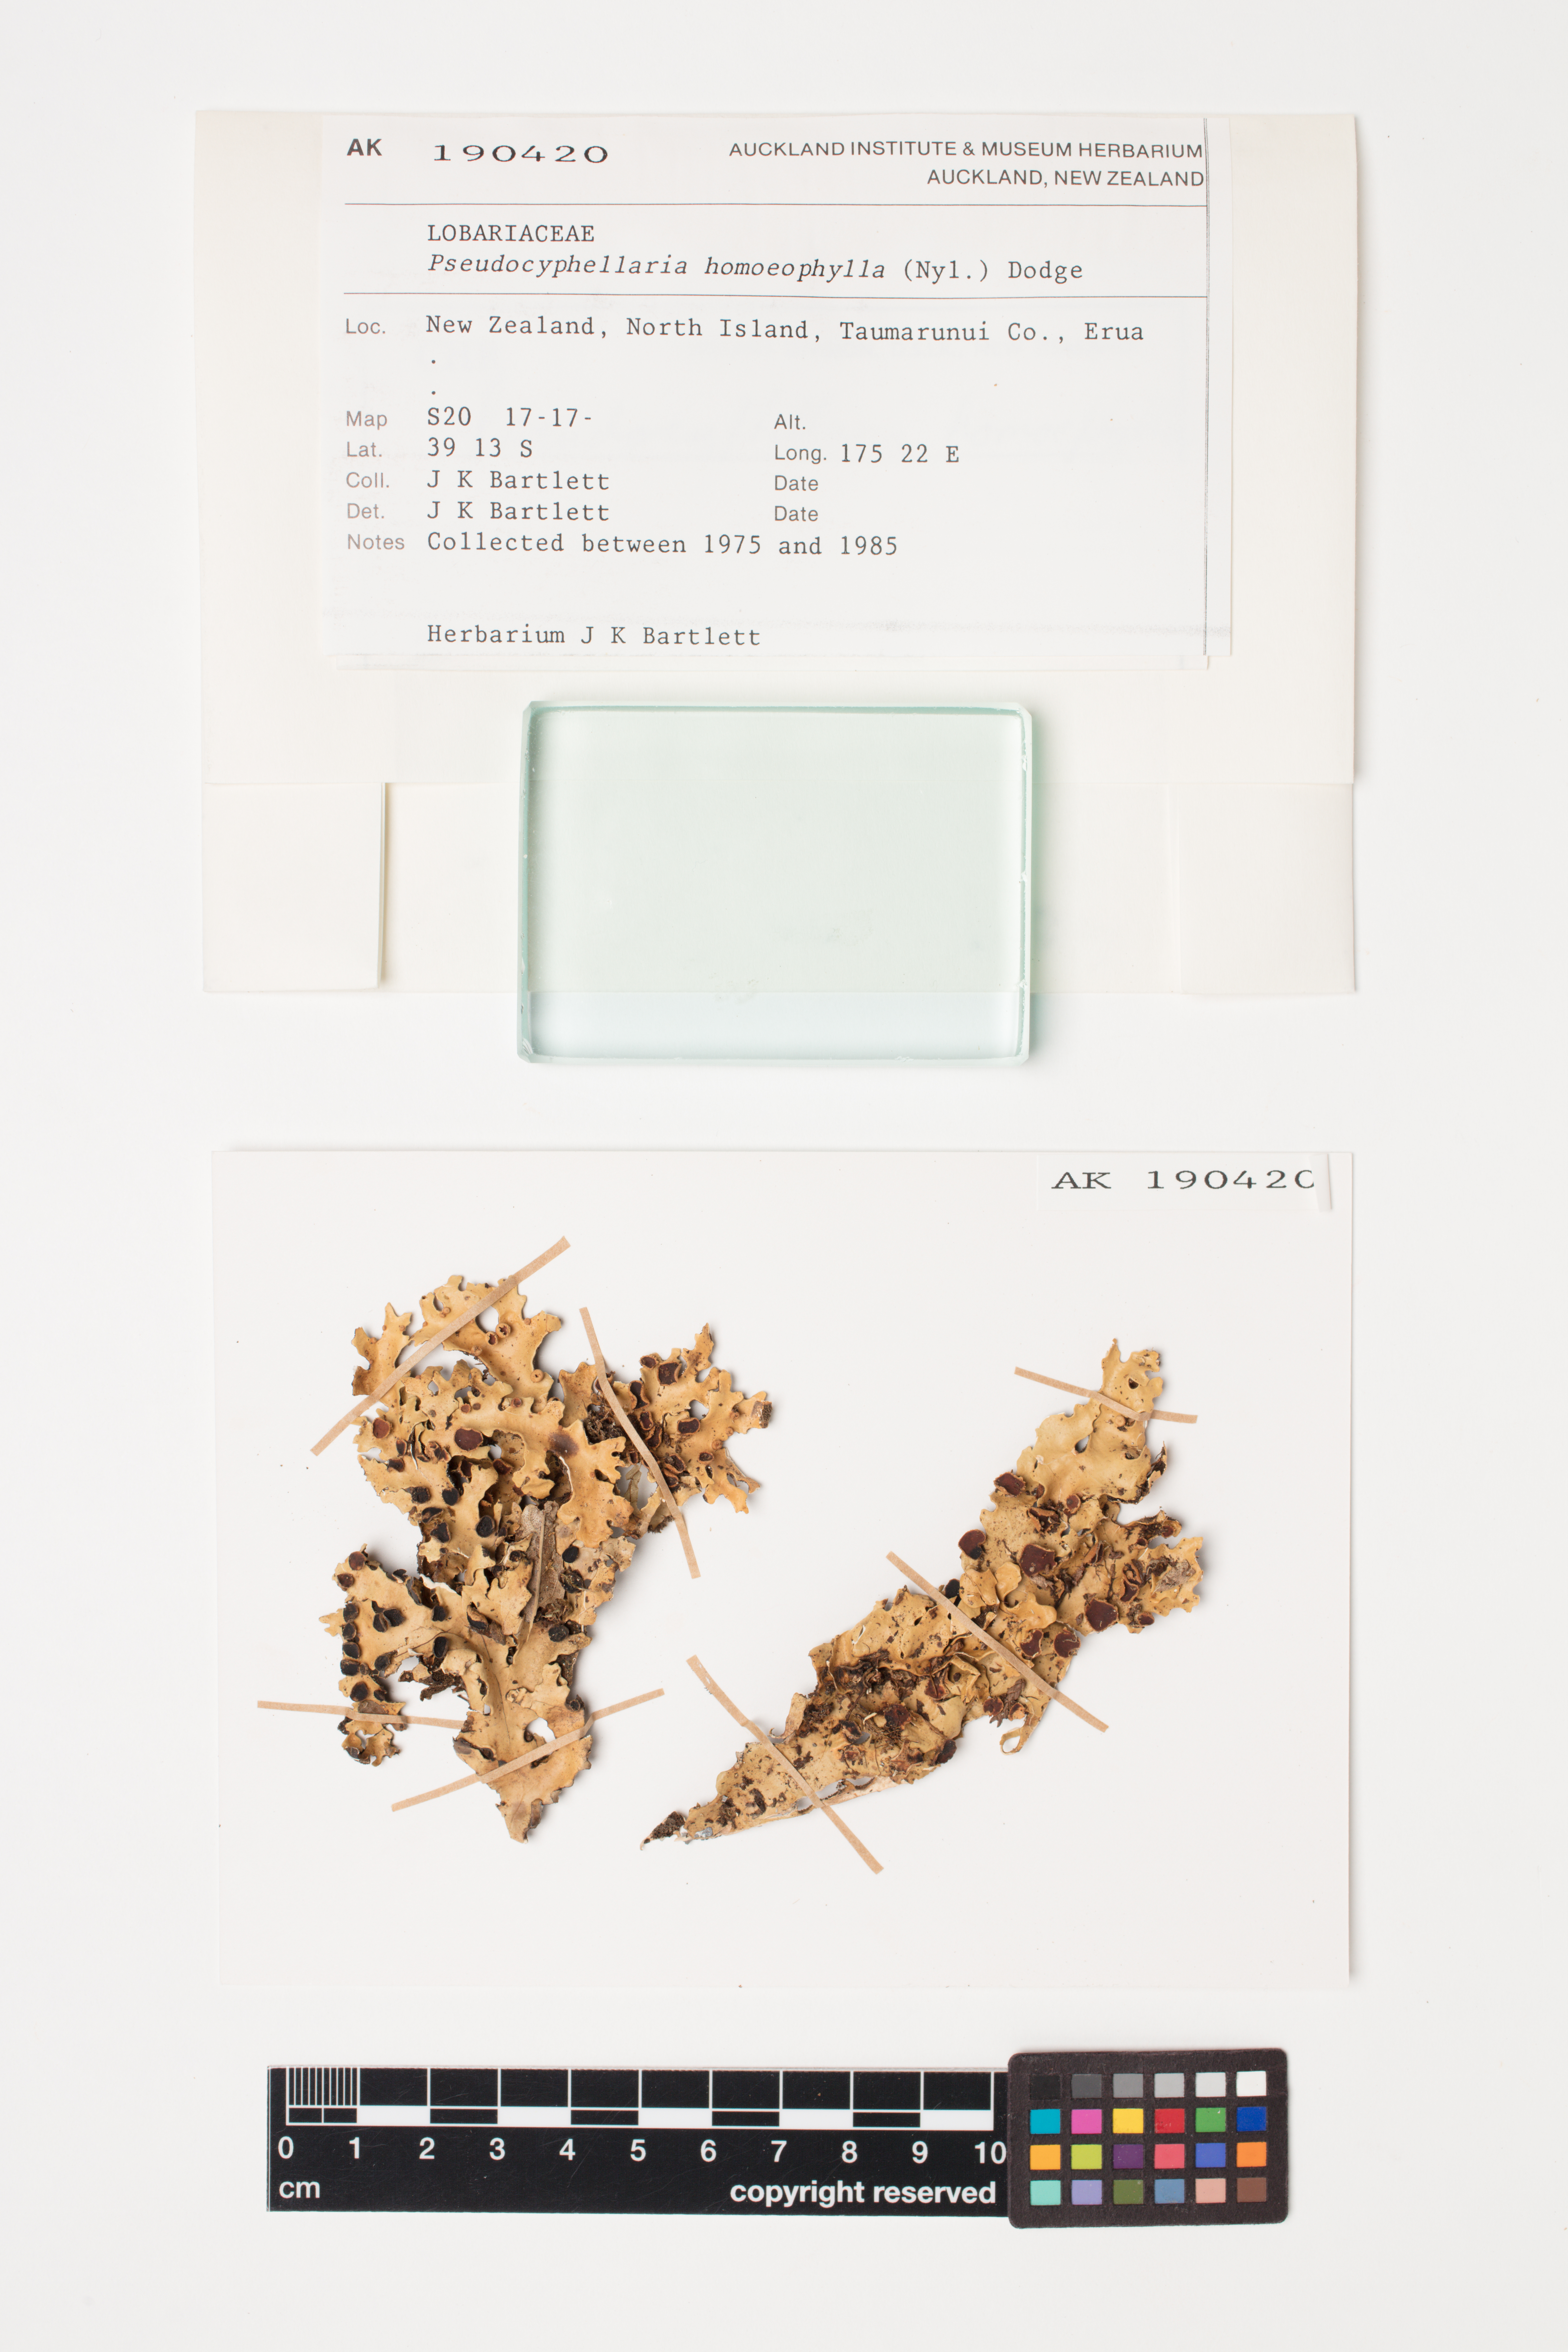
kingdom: Fungi
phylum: Ascomycota
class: Lecanoromycetes
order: Peltigerales
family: Lobariaceae
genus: Pseudocyphellaria
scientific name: Pseudocyphellaria homeophylla
